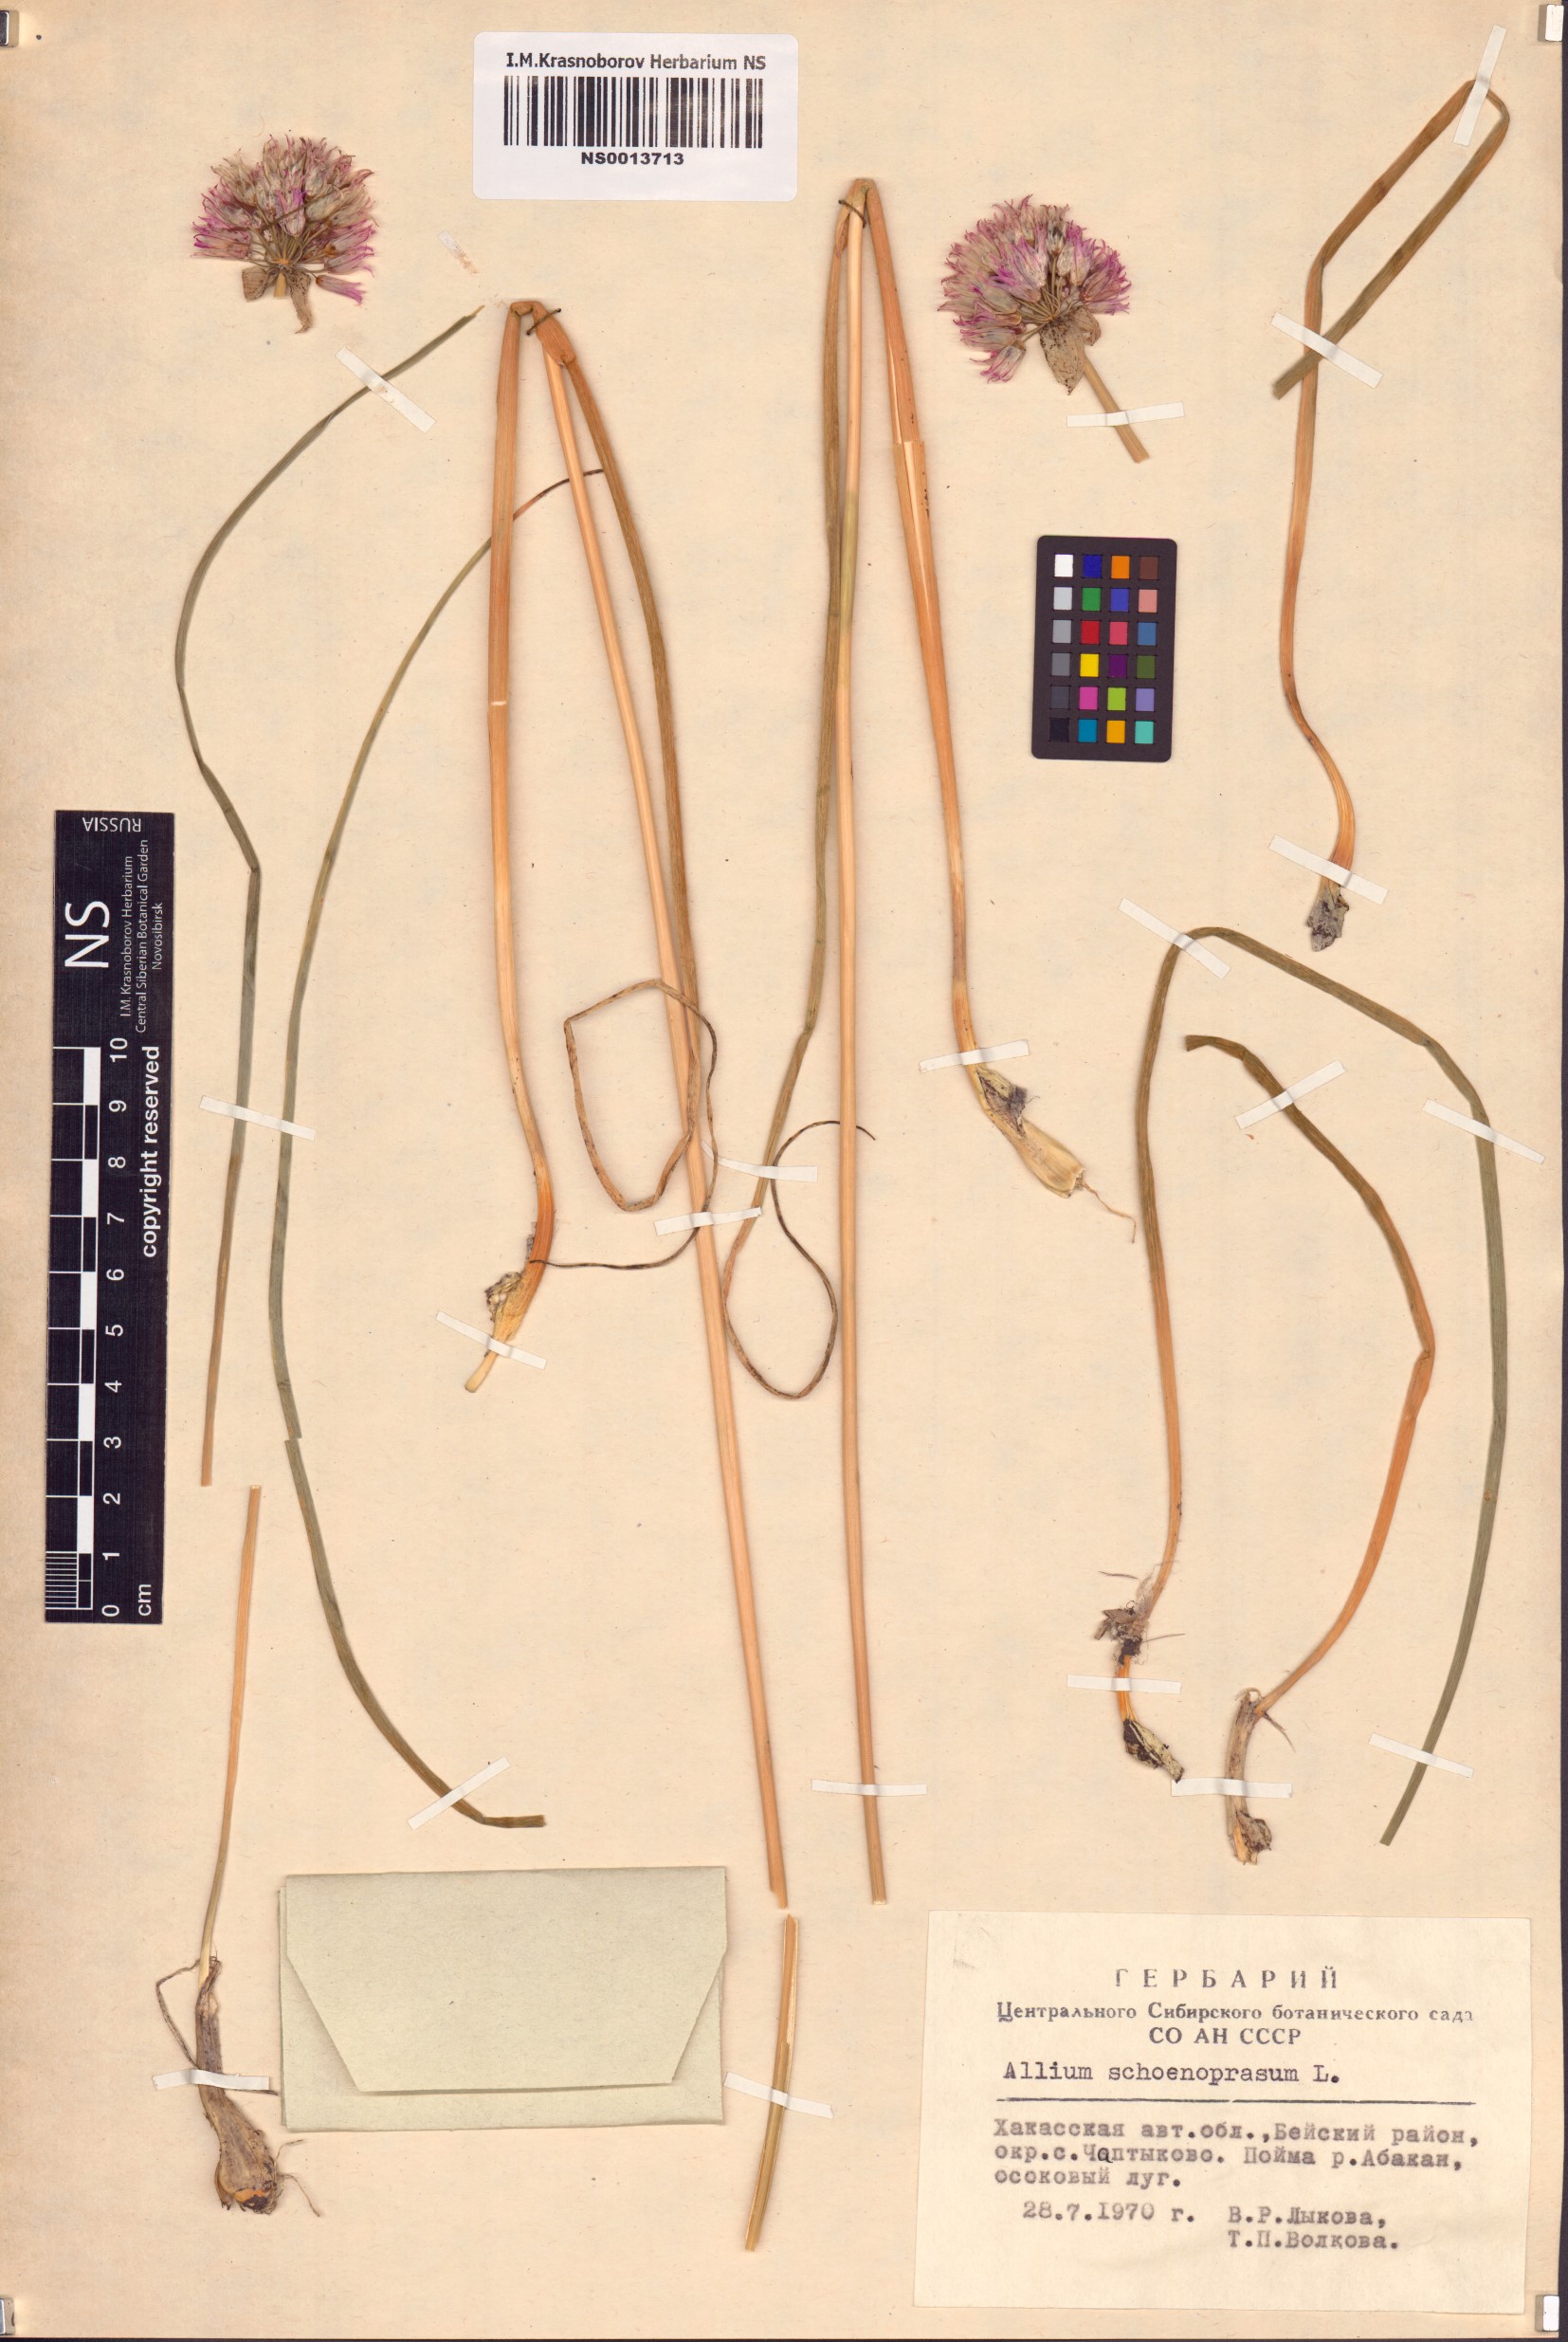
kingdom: Plantae
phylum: Tracheophyta
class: Liliopsida
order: Asparagales
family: Amaryllidaceae
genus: Allium
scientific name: Allium schoenoprasum
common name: Chives
